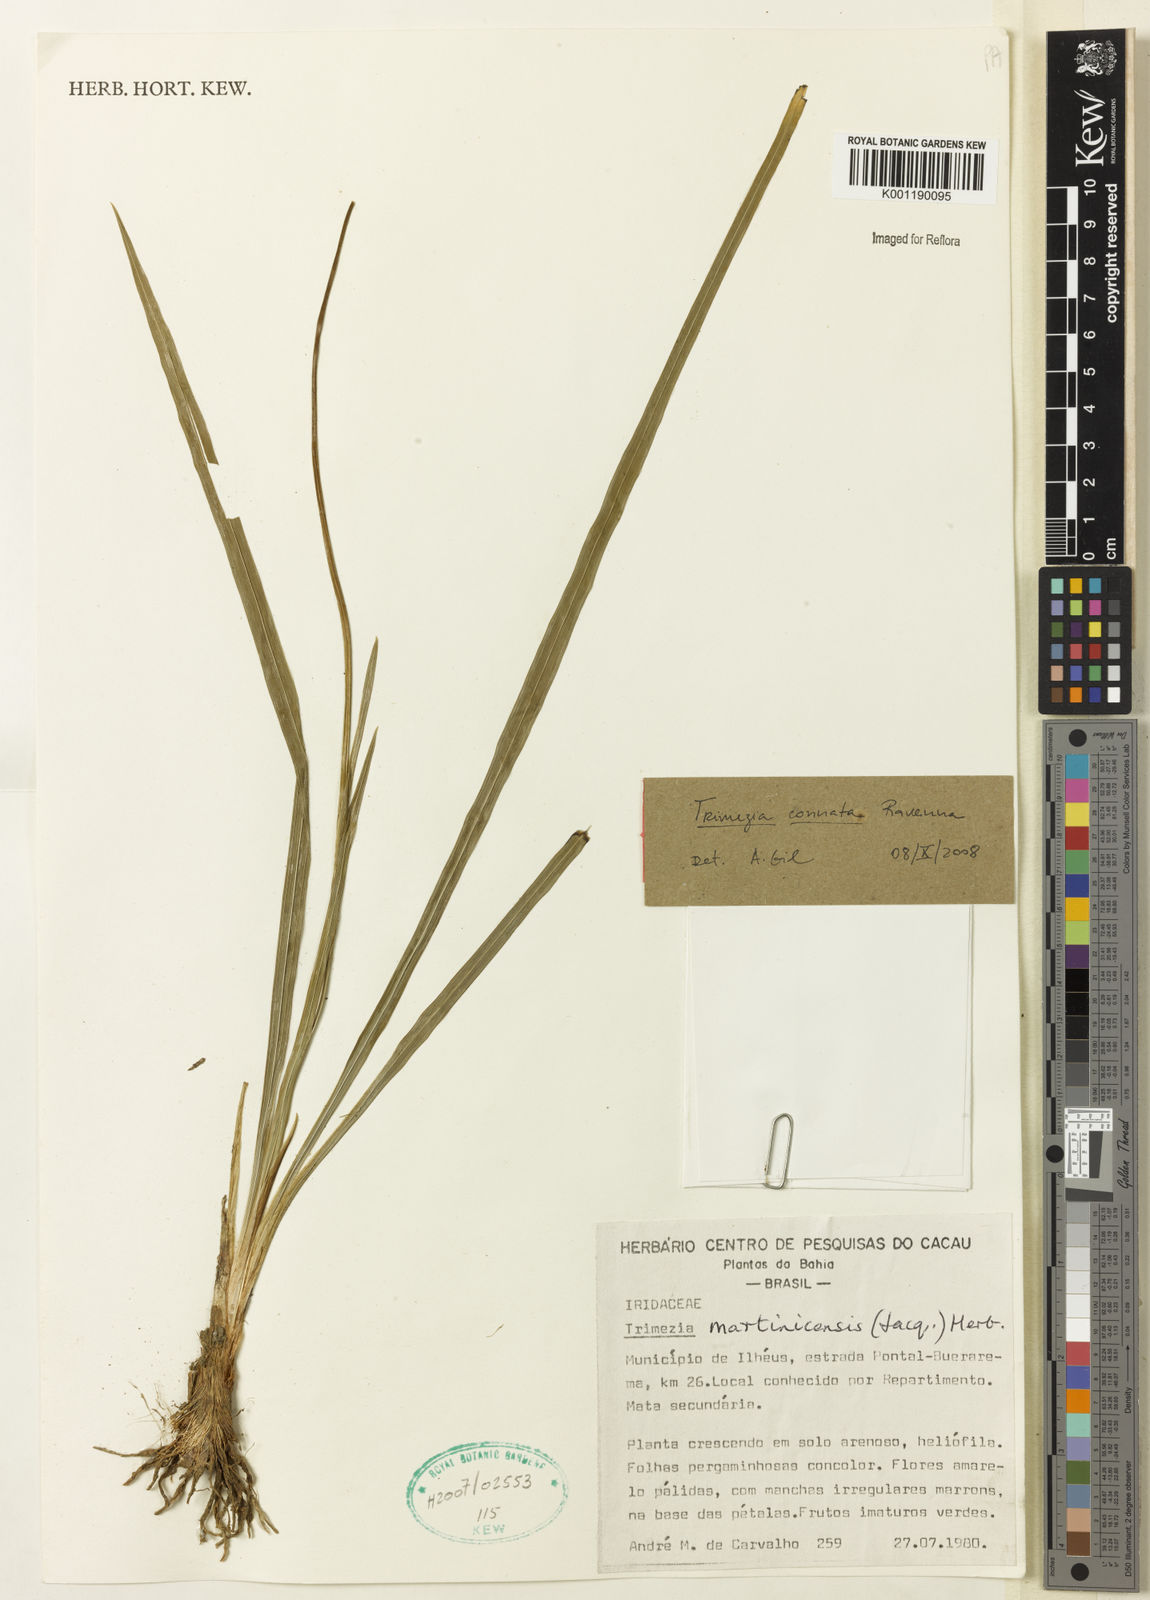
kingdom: Plantae
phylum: Tracheophyta
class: Liliopsida
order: Asparagales
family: Iridaceae
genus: Trimezia
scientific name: Trimezia martinicensis
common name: Martinique trimezia
